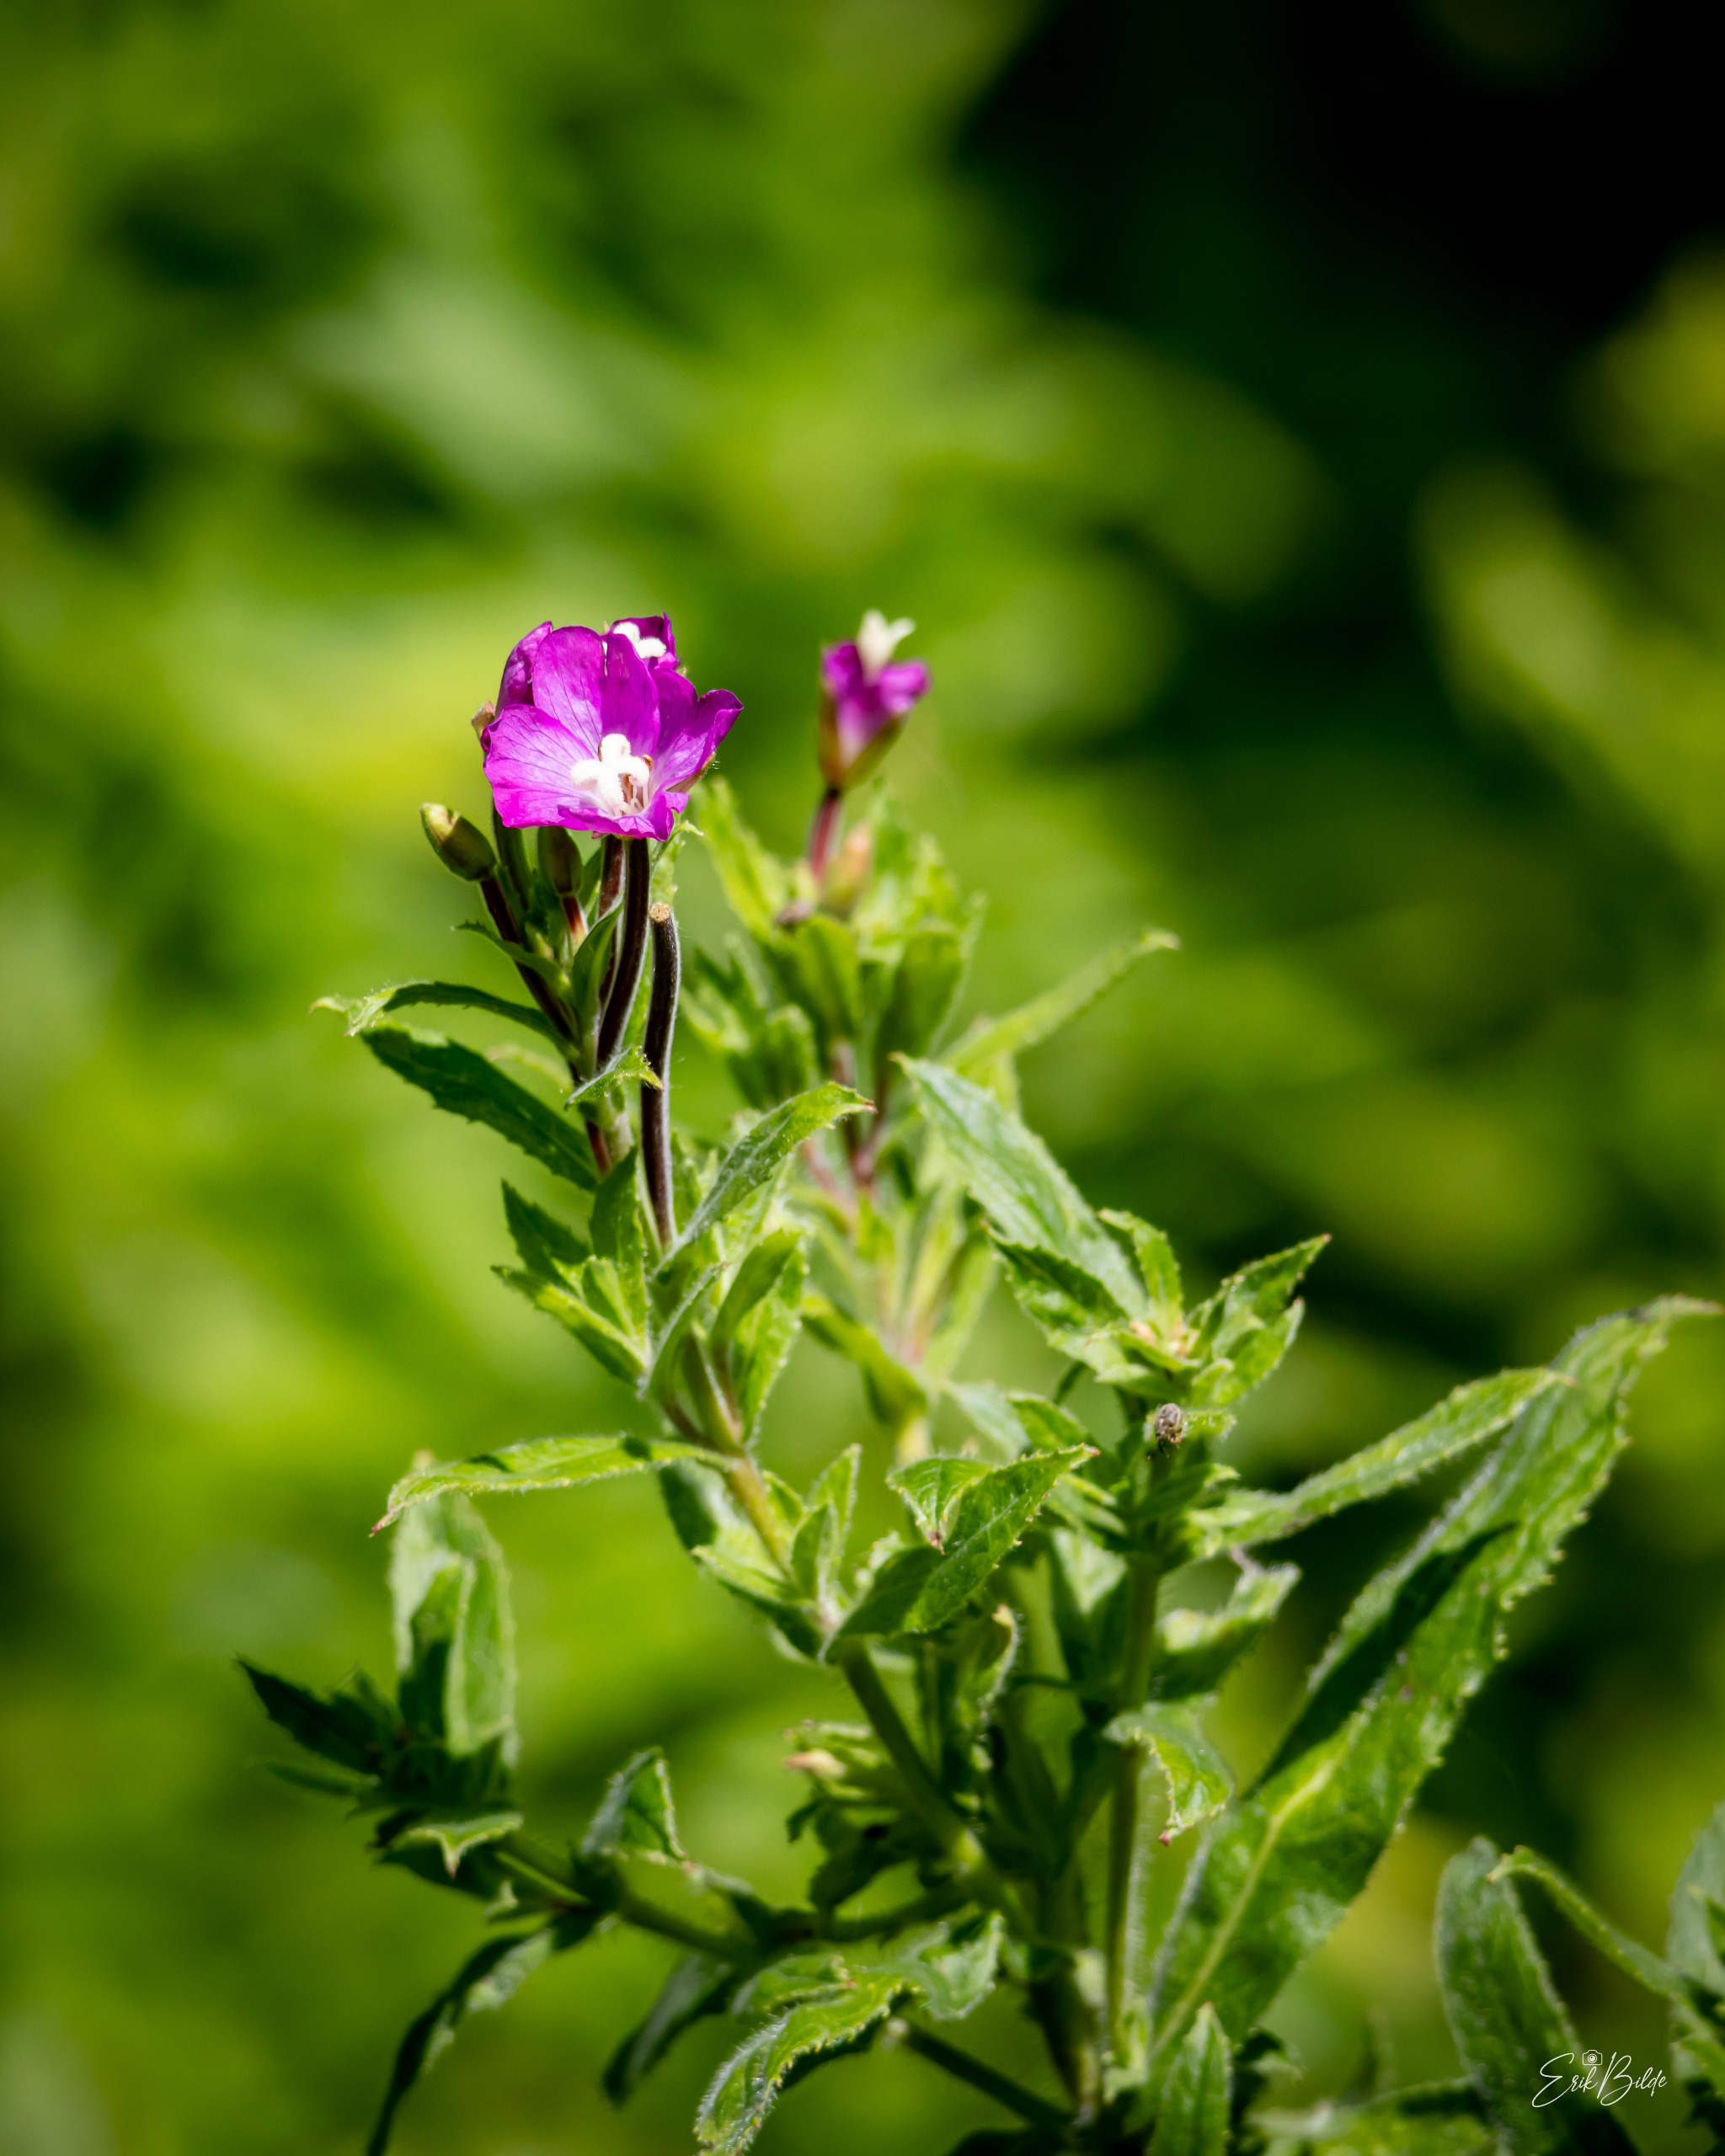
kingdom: Plantae
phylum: Tracheophyta
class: Magnoliopsida
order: Myrtales
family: Onagraceae
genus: Epilobium
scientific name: Epilobium hirsutum
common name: Lådden dueurt
